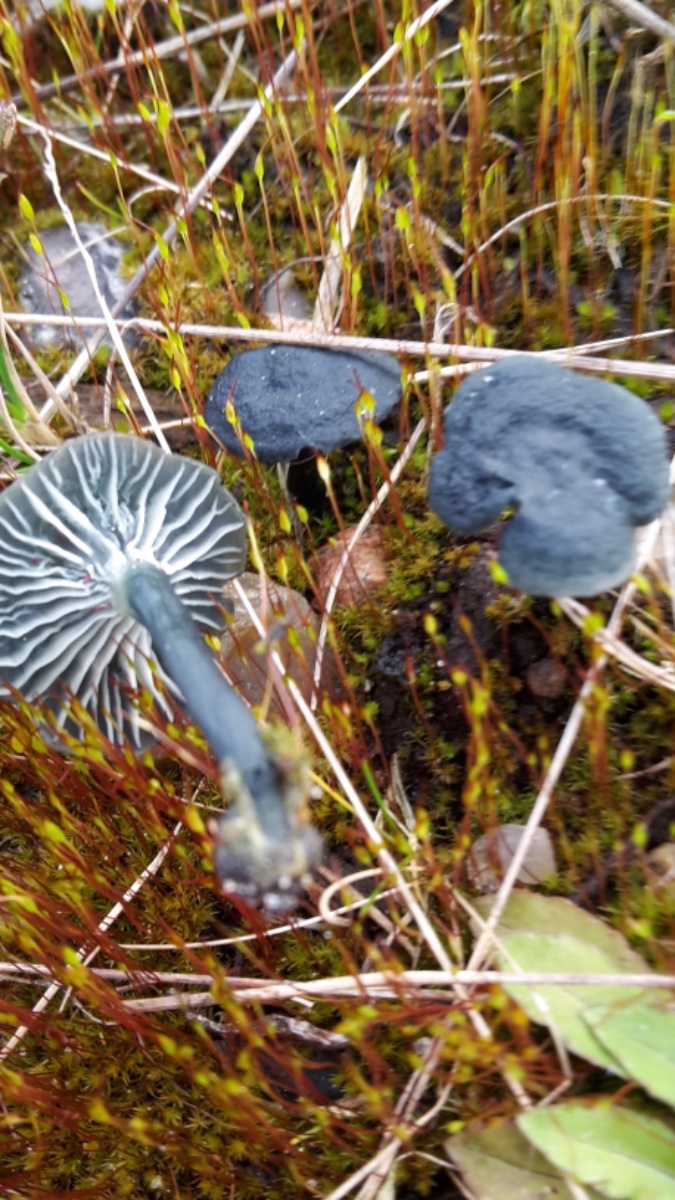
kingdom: Fungi
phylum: Basidiomycota
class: Agaricomycetes
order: Agaricales
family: Hygrophoraceae
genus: Arrhenia
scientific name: Arrhenia chlorocyanea
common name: blågrøn fontænehat
